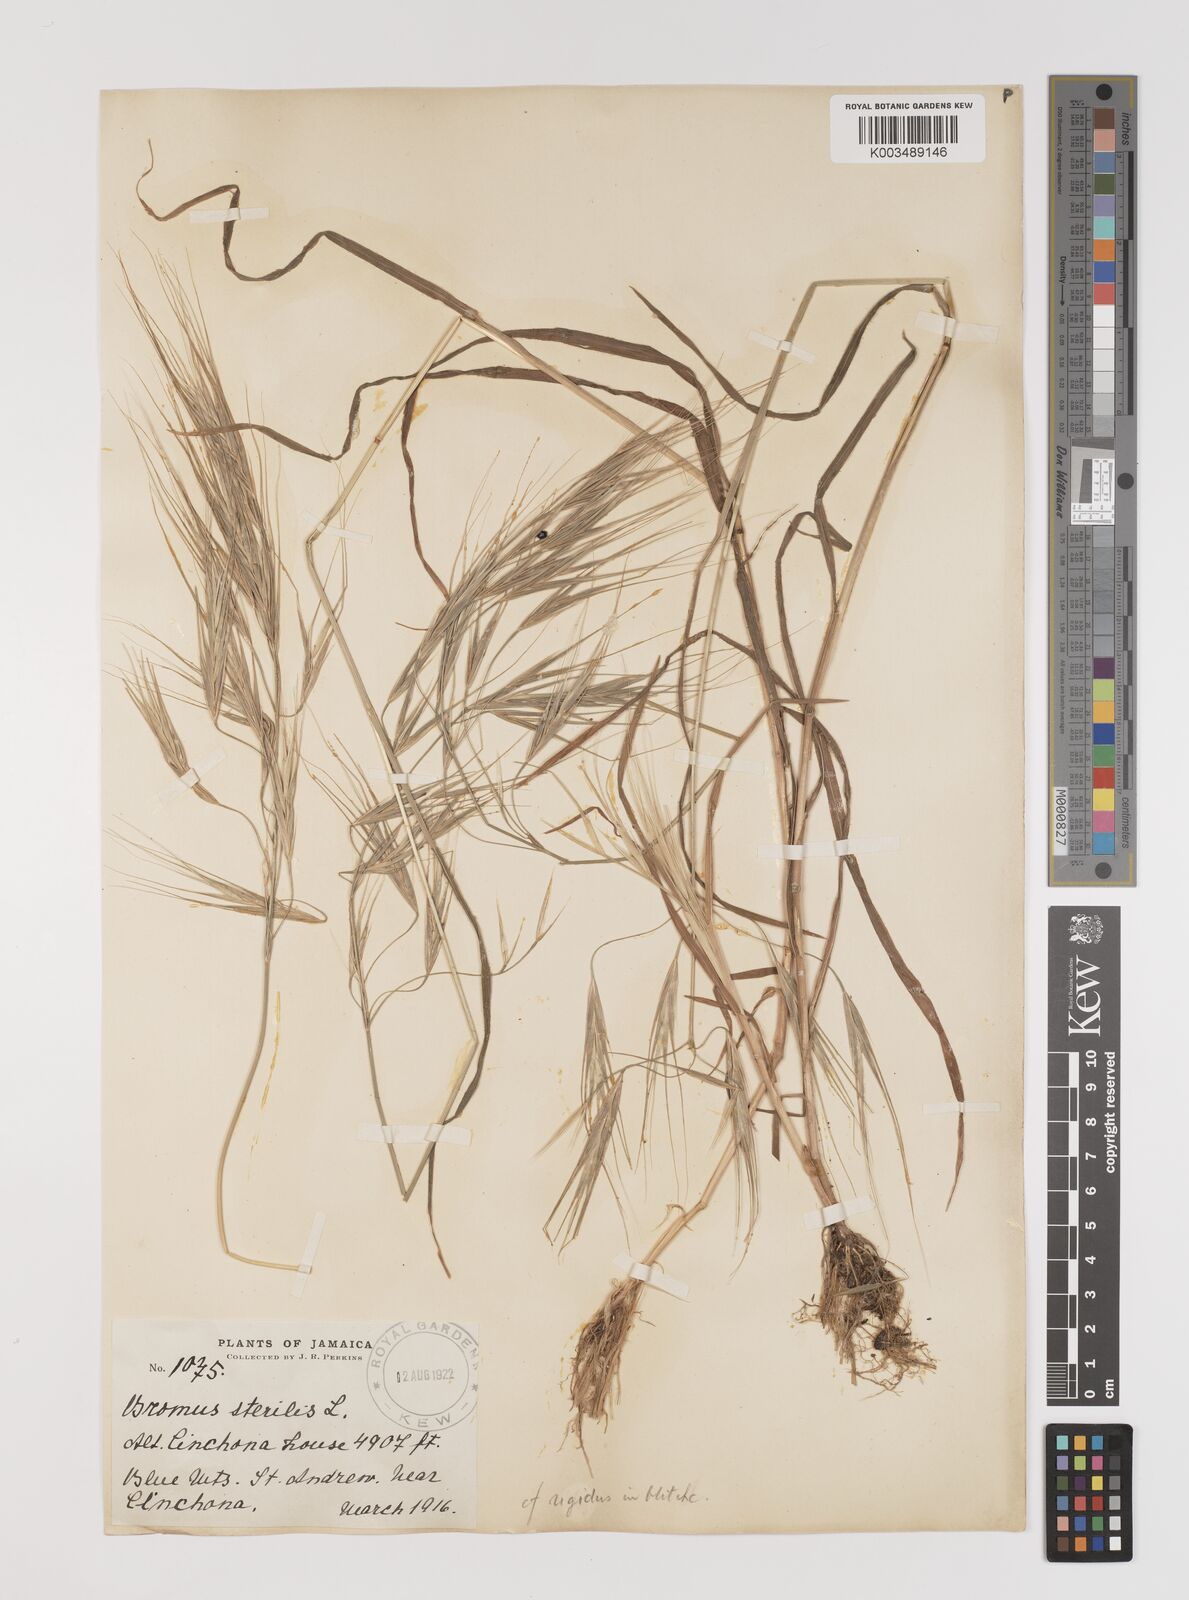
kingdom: Plantae
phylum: Tracheophyta
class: Liliopsida
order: Poales
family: Poaceae
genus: Bromus
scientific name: Bromus
